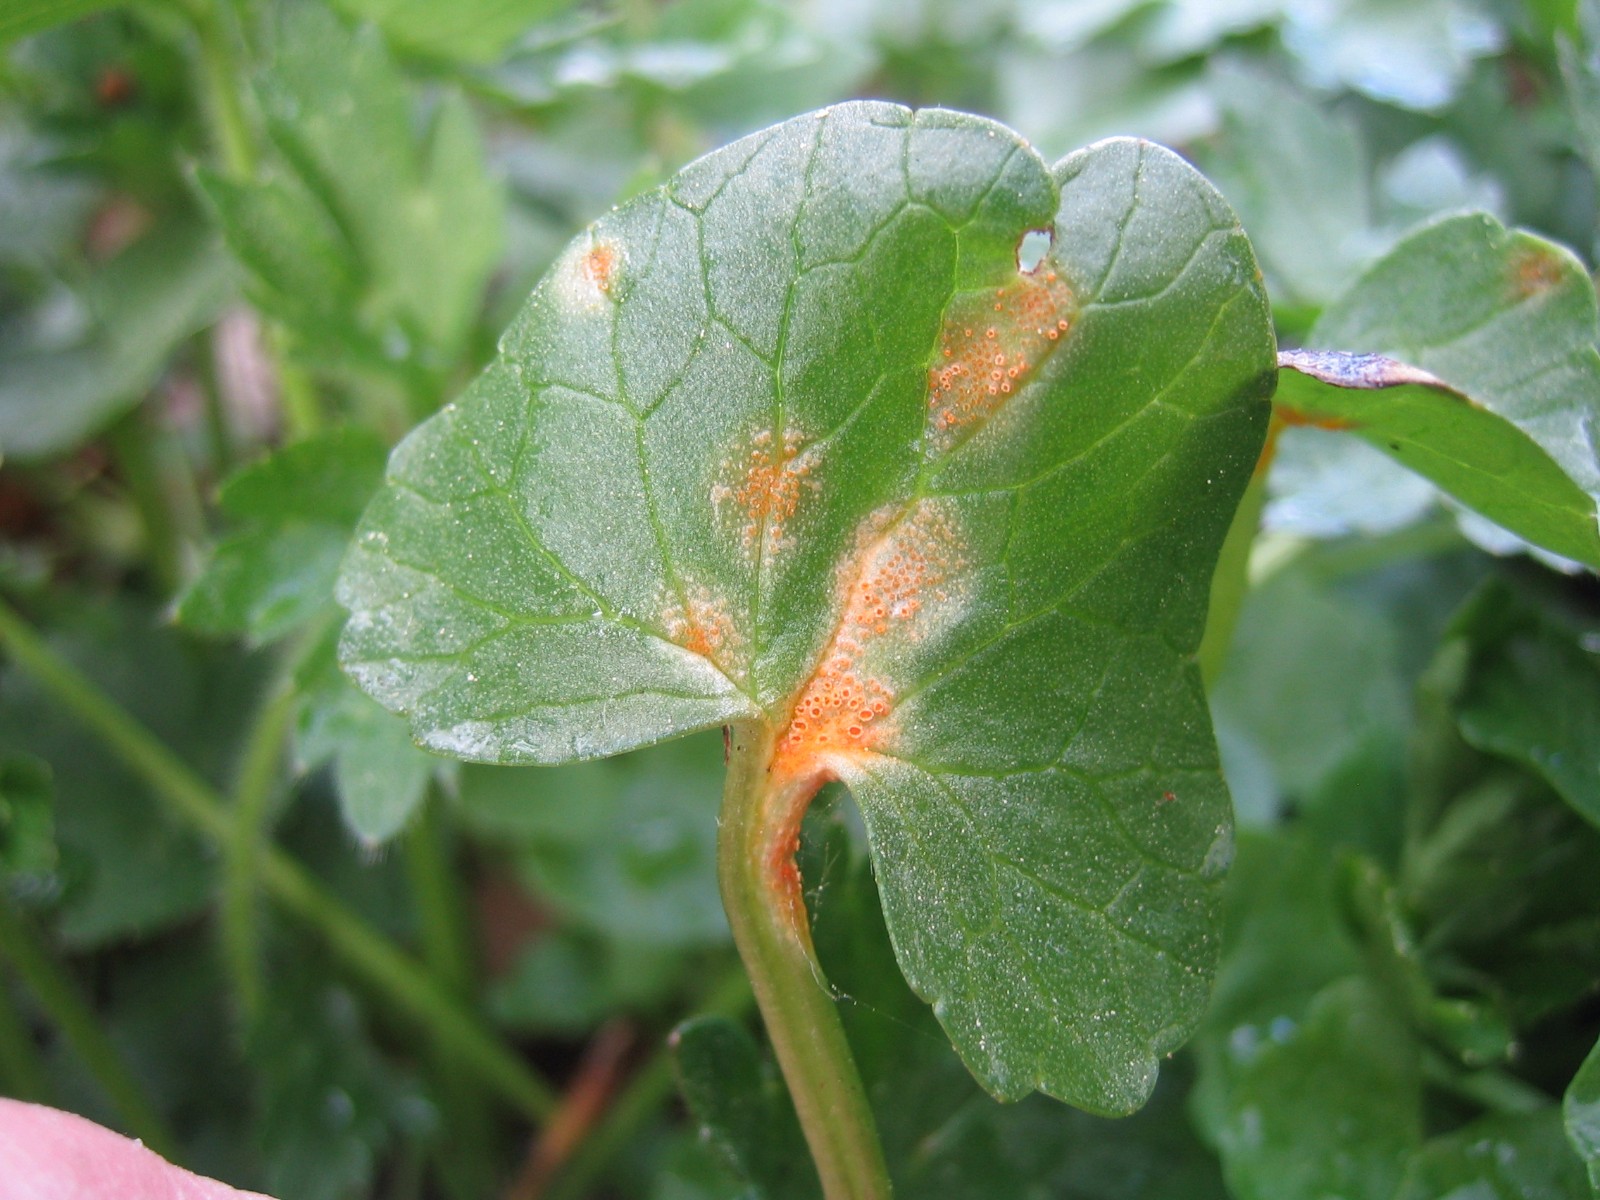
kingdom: Fungi
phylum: Basidiomycota
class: Pucciniomycetes
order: Pucciniales
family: Pucciniaceae
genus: Uromyces
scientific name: Uromyces dactylidis
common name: ranunkel-encellerust
